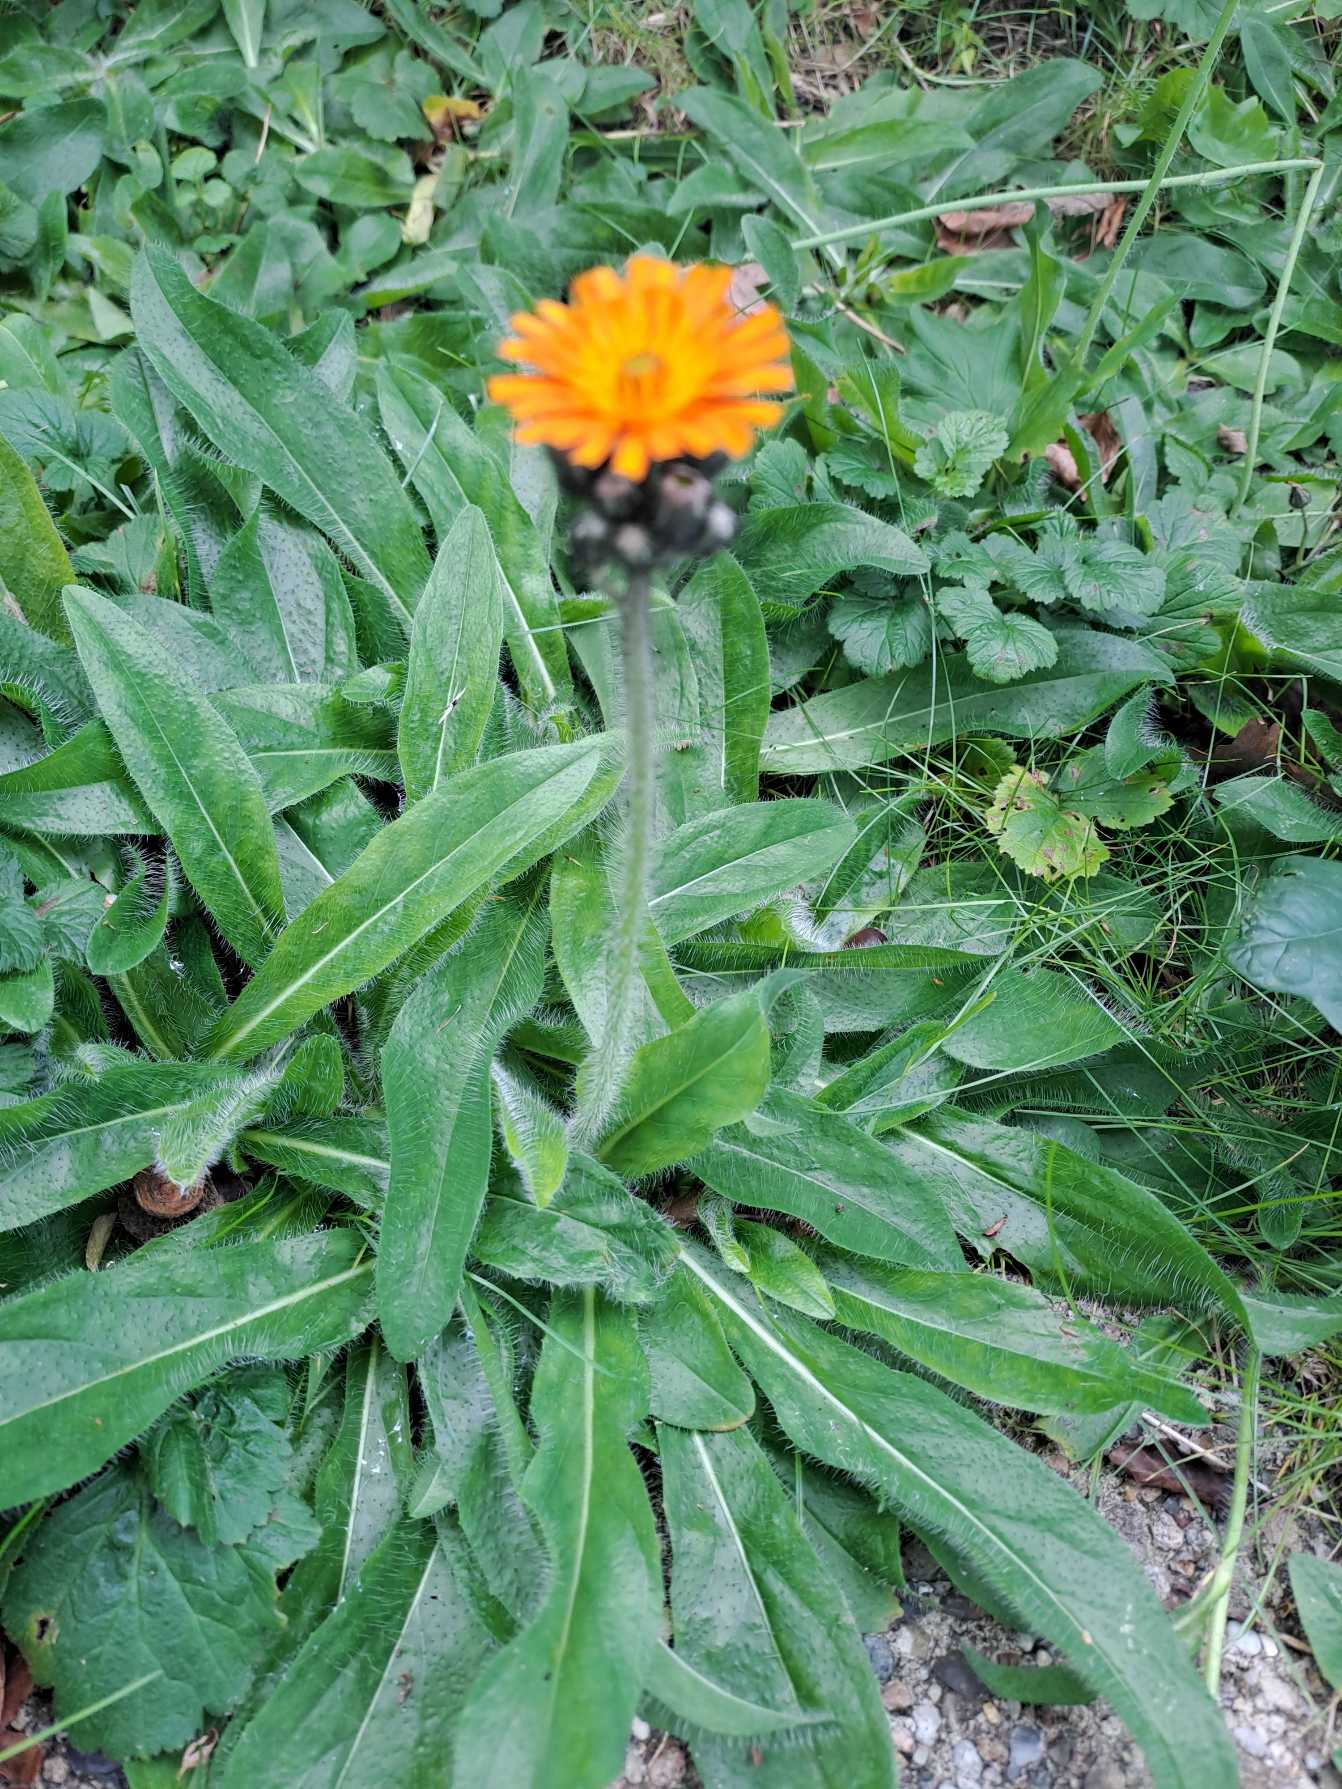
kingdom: Plantae
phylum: Tracheophyta
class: Magnoliopsida
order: Asterales
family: Asteraceae
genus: Pilosella
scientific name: Pilosella aurantiaca
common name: Pomerans-høgeurt
